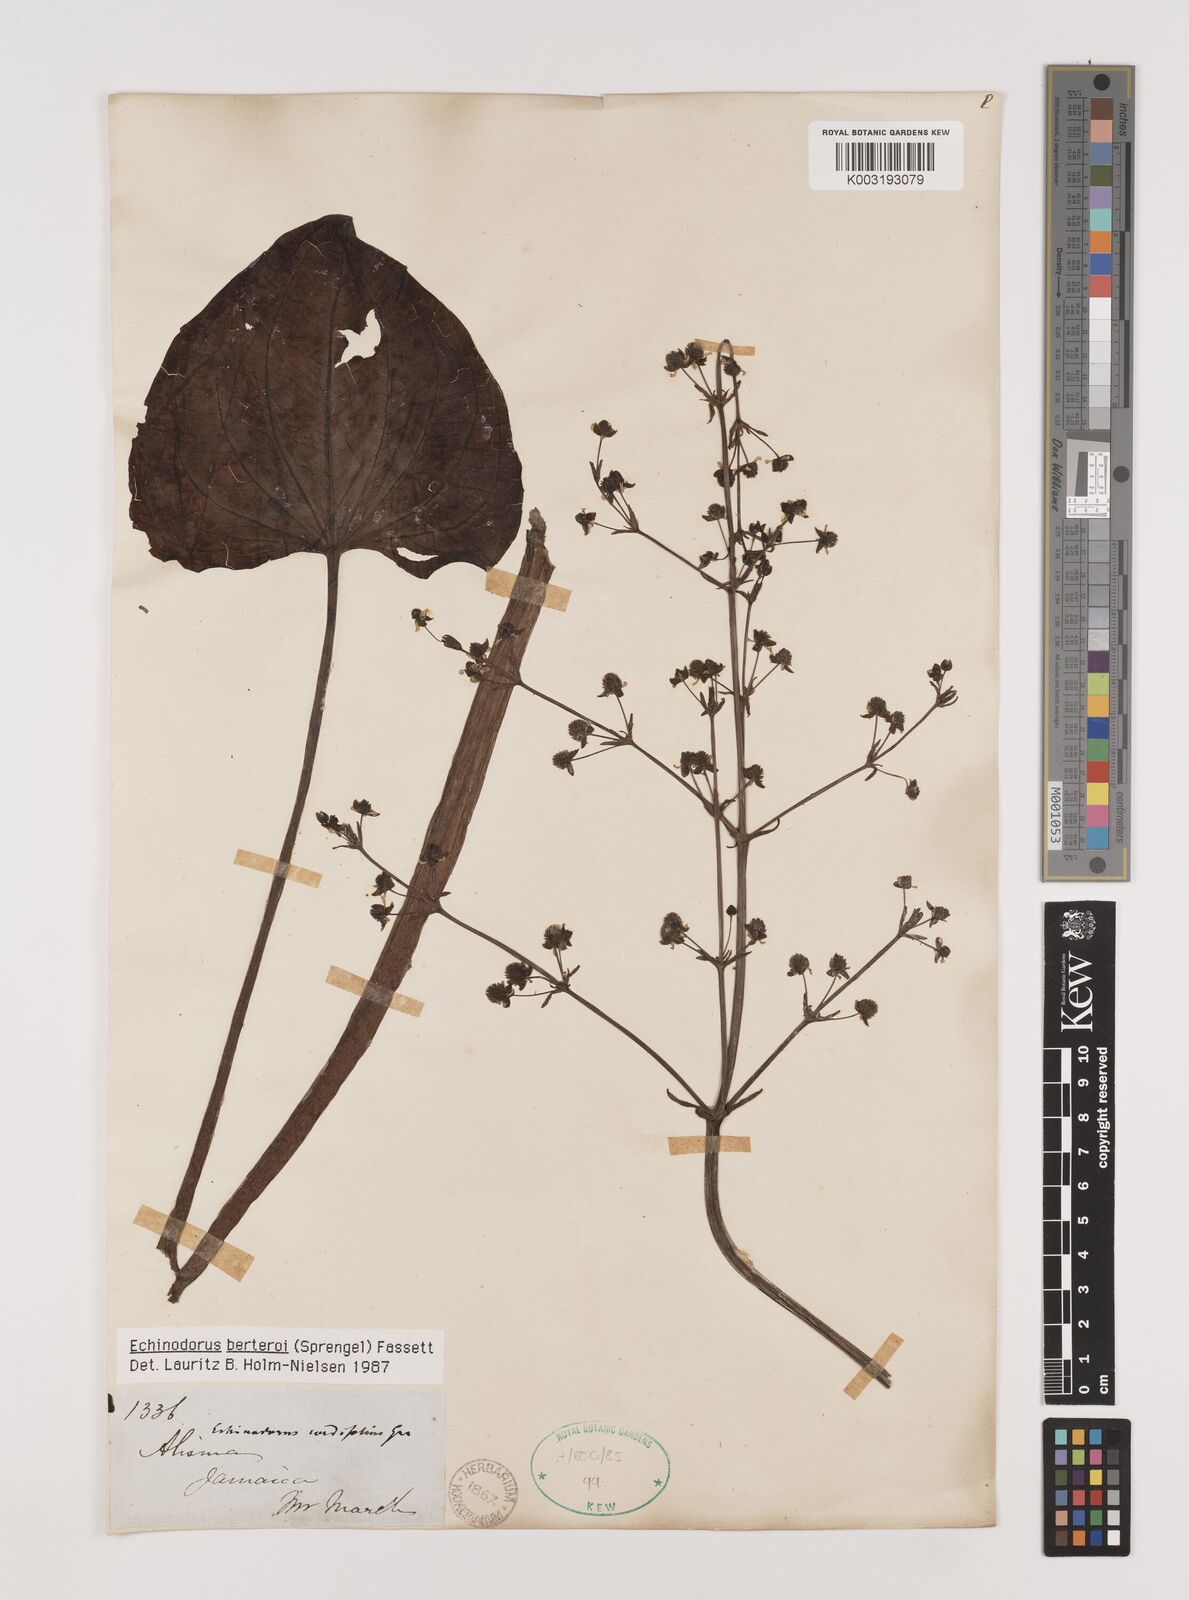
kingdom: Plantae
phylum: Tracheophyta
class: Liliopsida
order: Alismatales
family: Alismataceae
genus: Echinodorus
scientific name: Echinodorus berteroi
